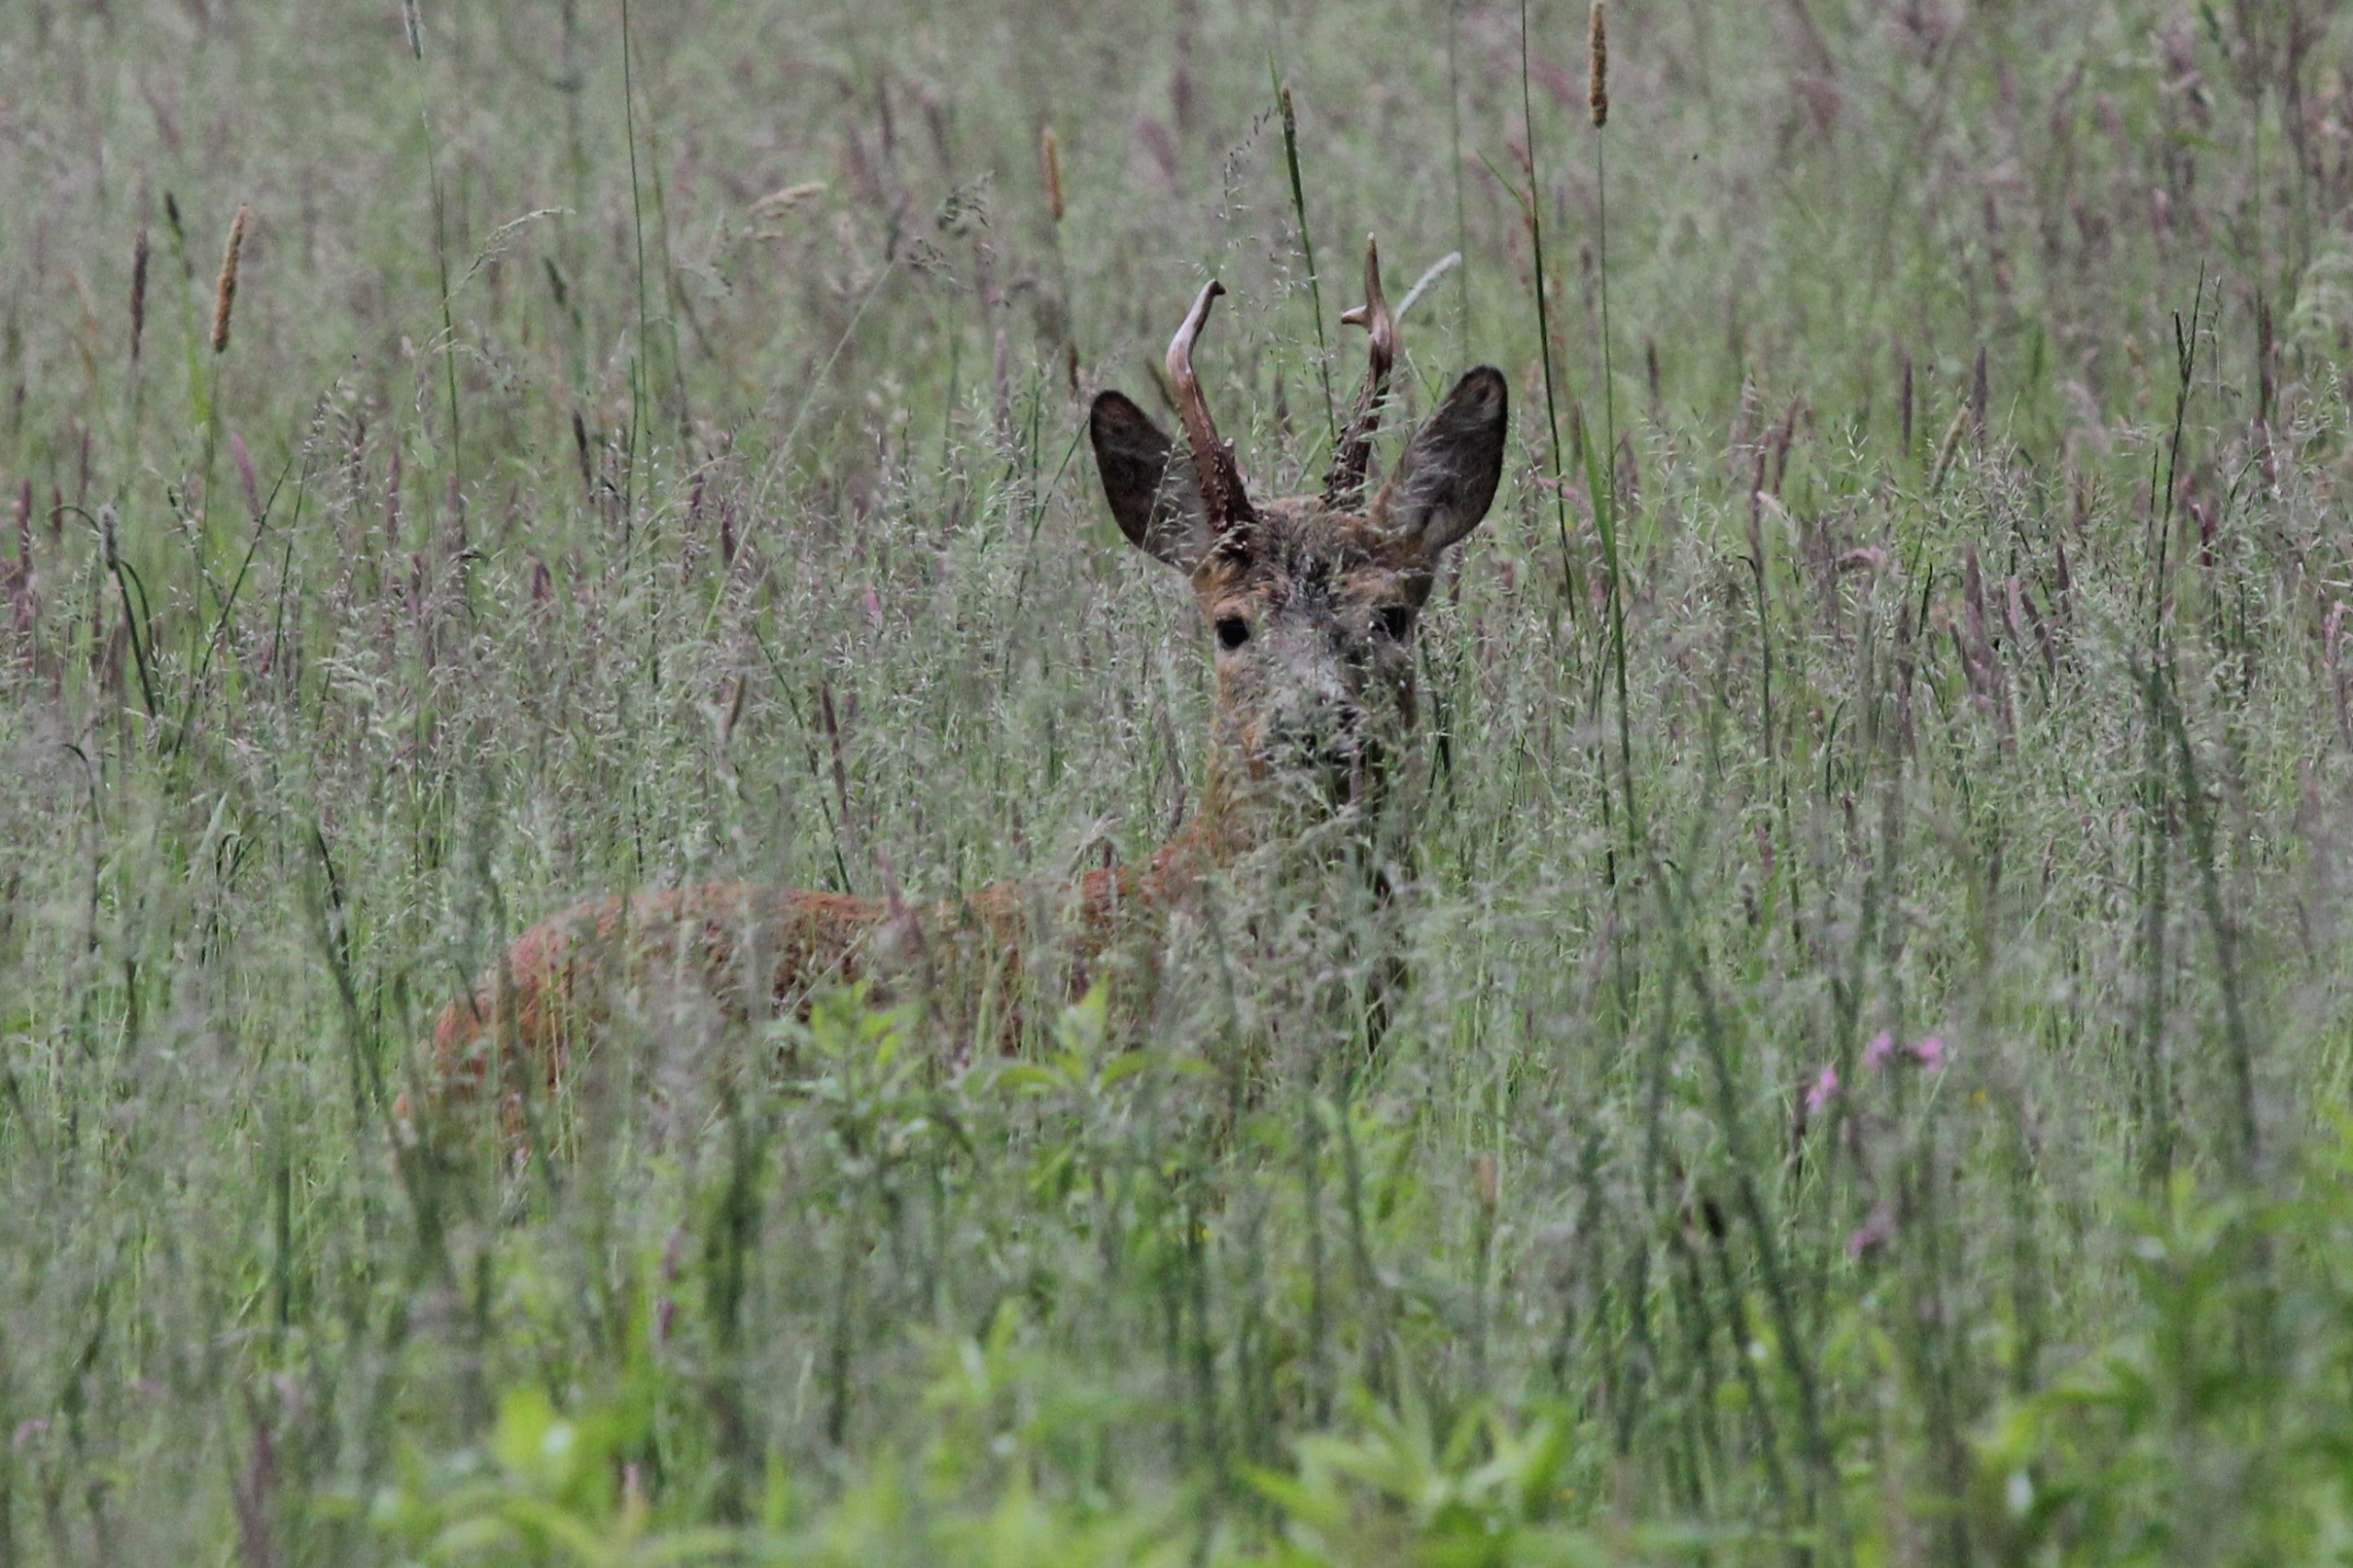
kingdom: Animalia
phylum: Chordata
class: Mammalia
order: Artiodactyla
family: Cervidae
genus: Capreolus
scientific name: Capreolus capreolus
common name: Rådyr
